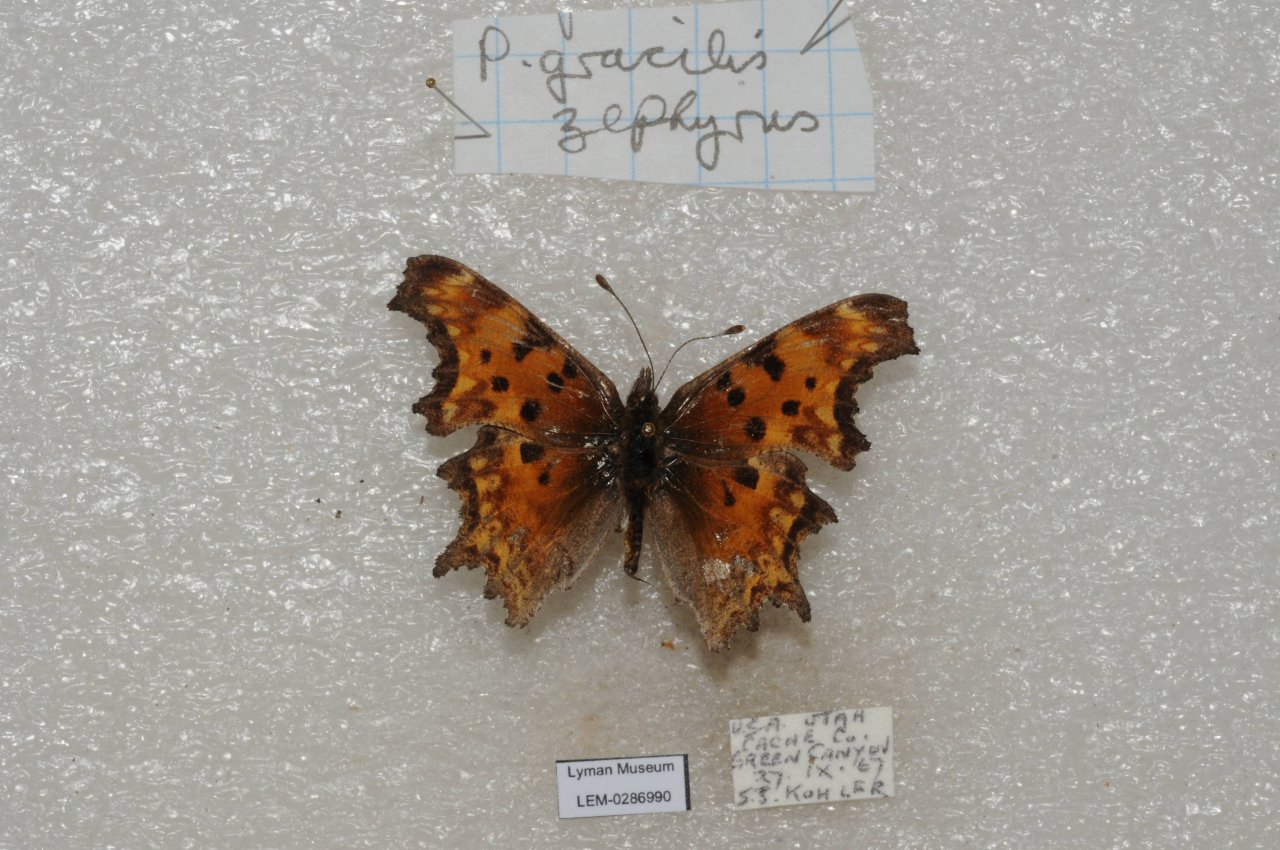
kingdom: Animalia
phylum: Arthropoda
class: Insecta
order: Lepidoptera
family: Nymphalidae
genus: Polygonia
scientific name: Polygonia gracilis
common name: Hoary Comma
